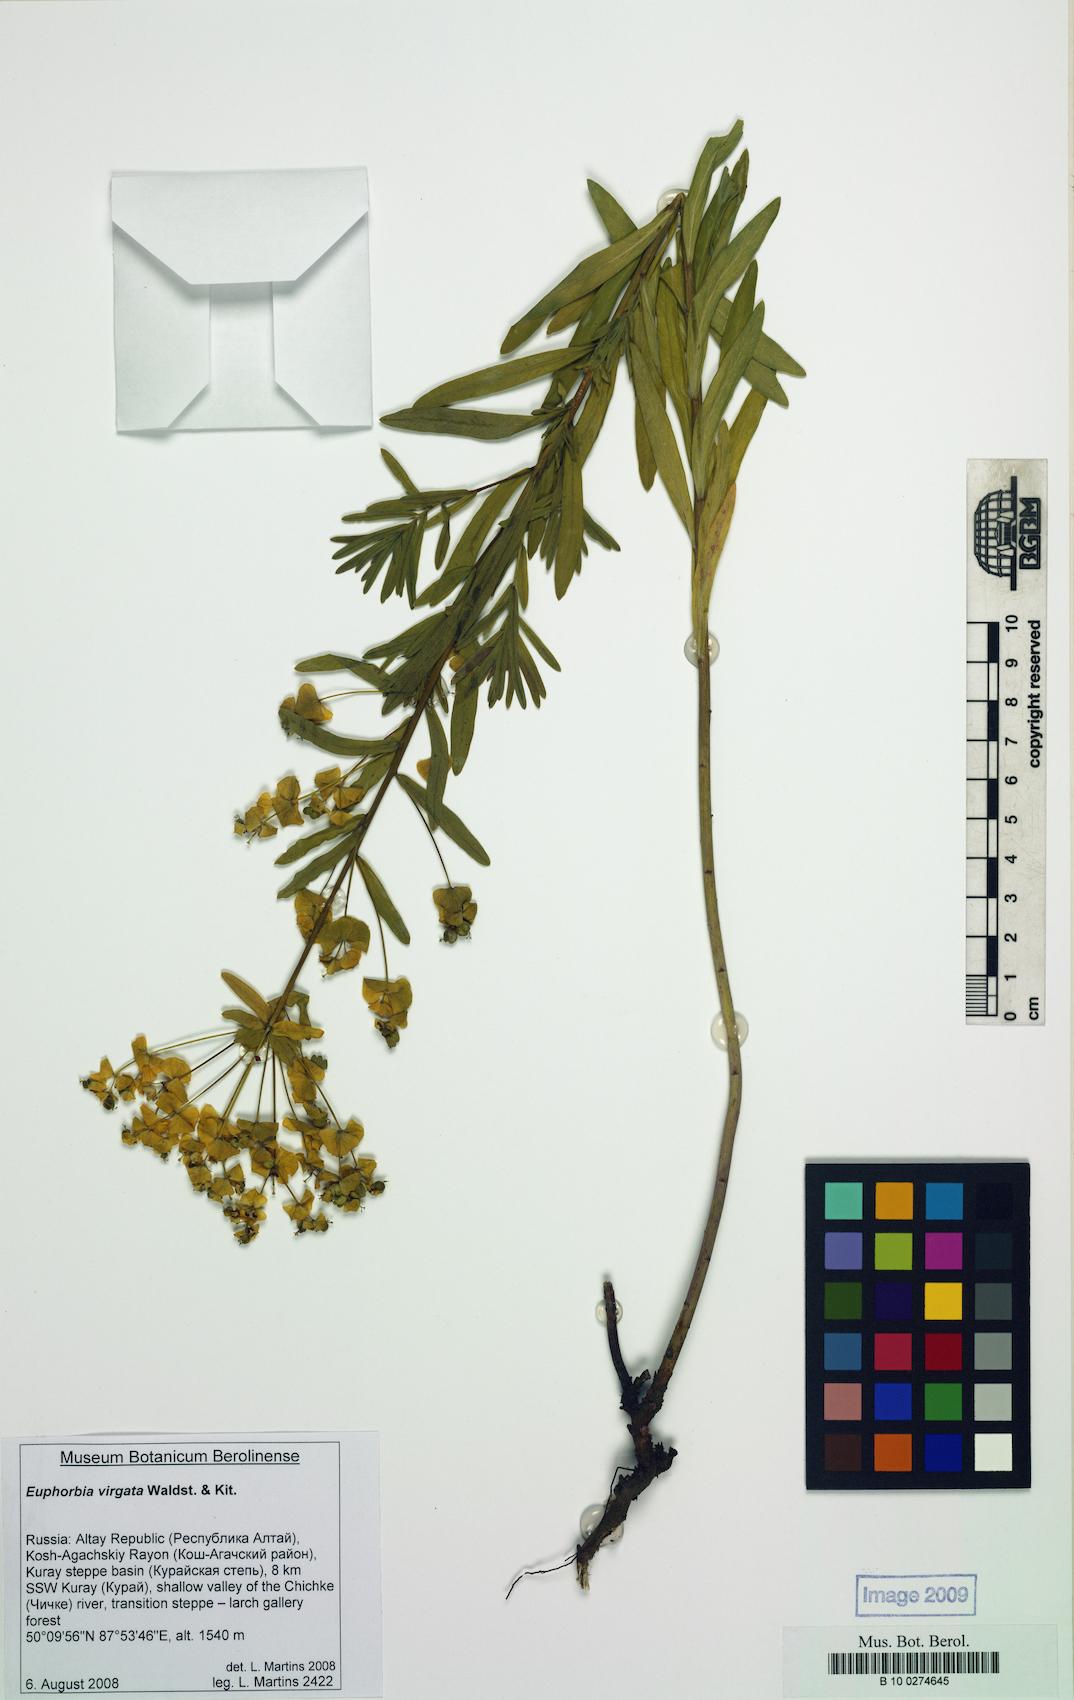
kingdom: Plantae
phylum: Tracheophyta
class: Magnoliopsida
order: Malpighiales
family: Euphorbiaceae
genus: Euphorbia
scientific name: Euphorbia virgata
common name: Leafy spurge
